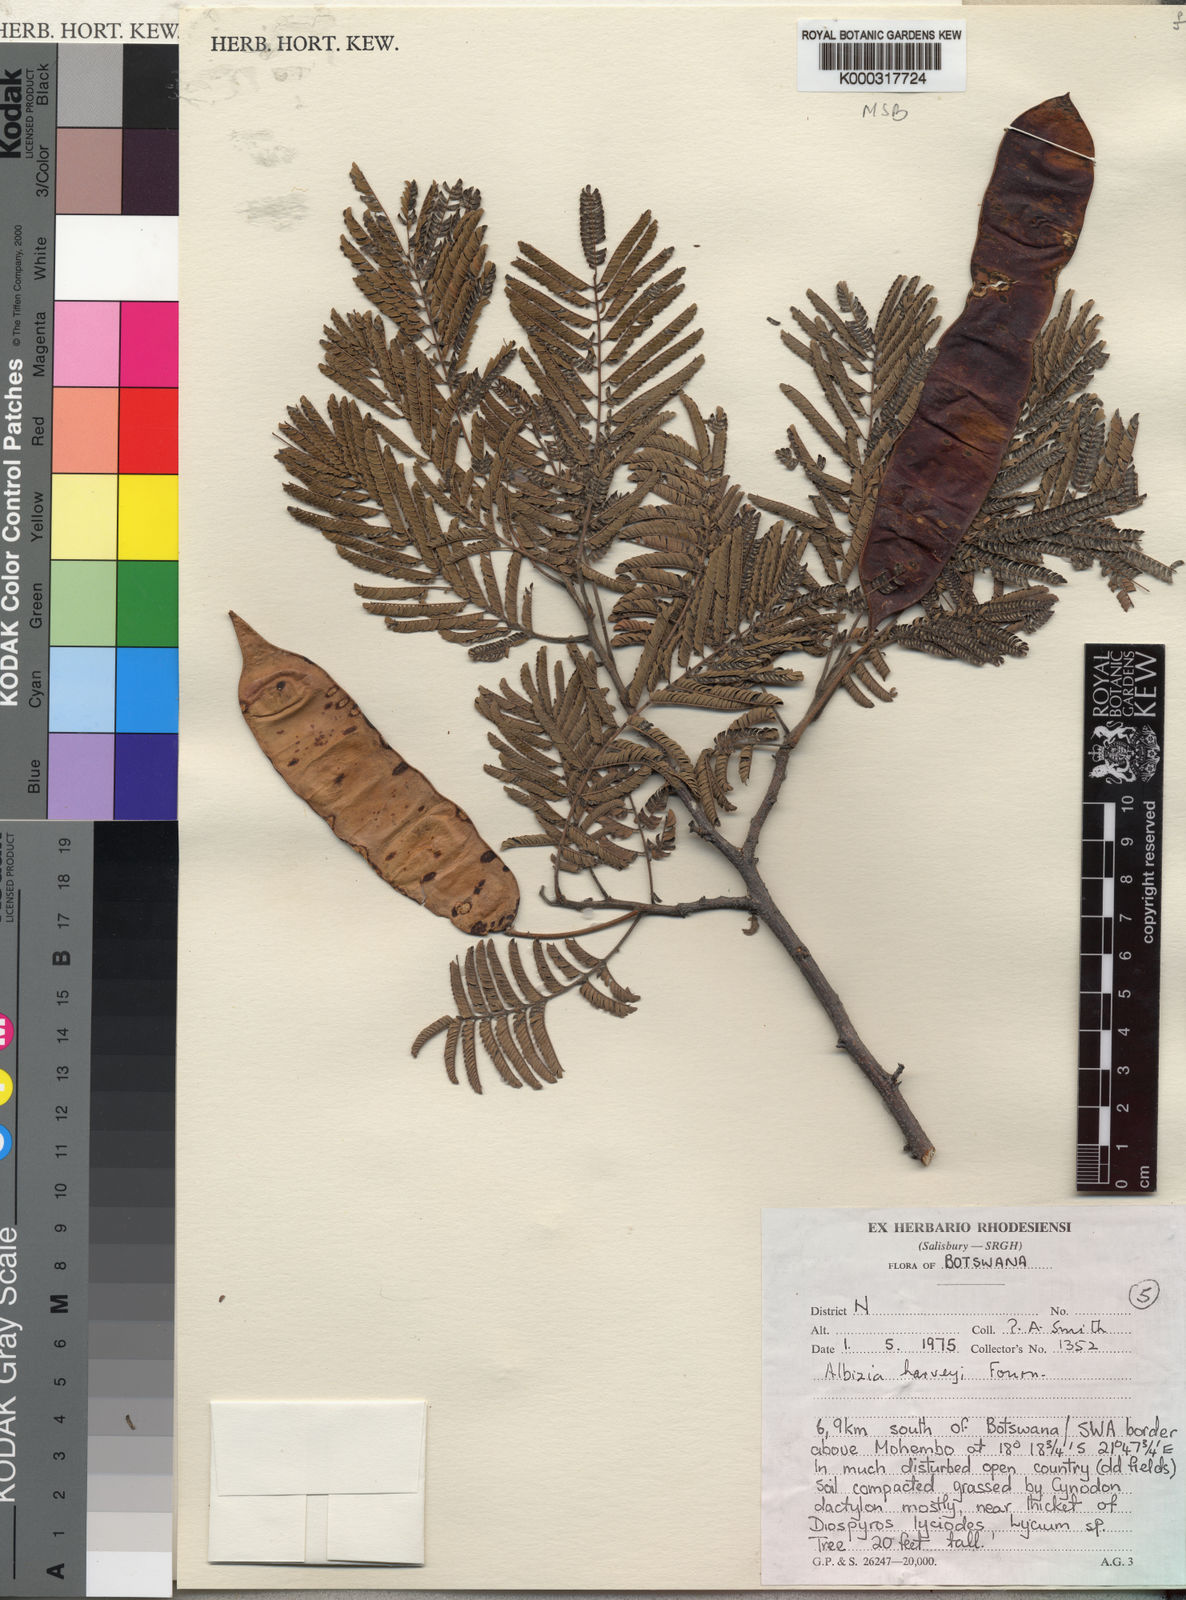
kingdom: Plantae
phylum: Tracheophyta
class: Magnoliopsida
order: Fabales
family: Fabaceae
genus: Albizia
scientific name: Albizia harveyi
